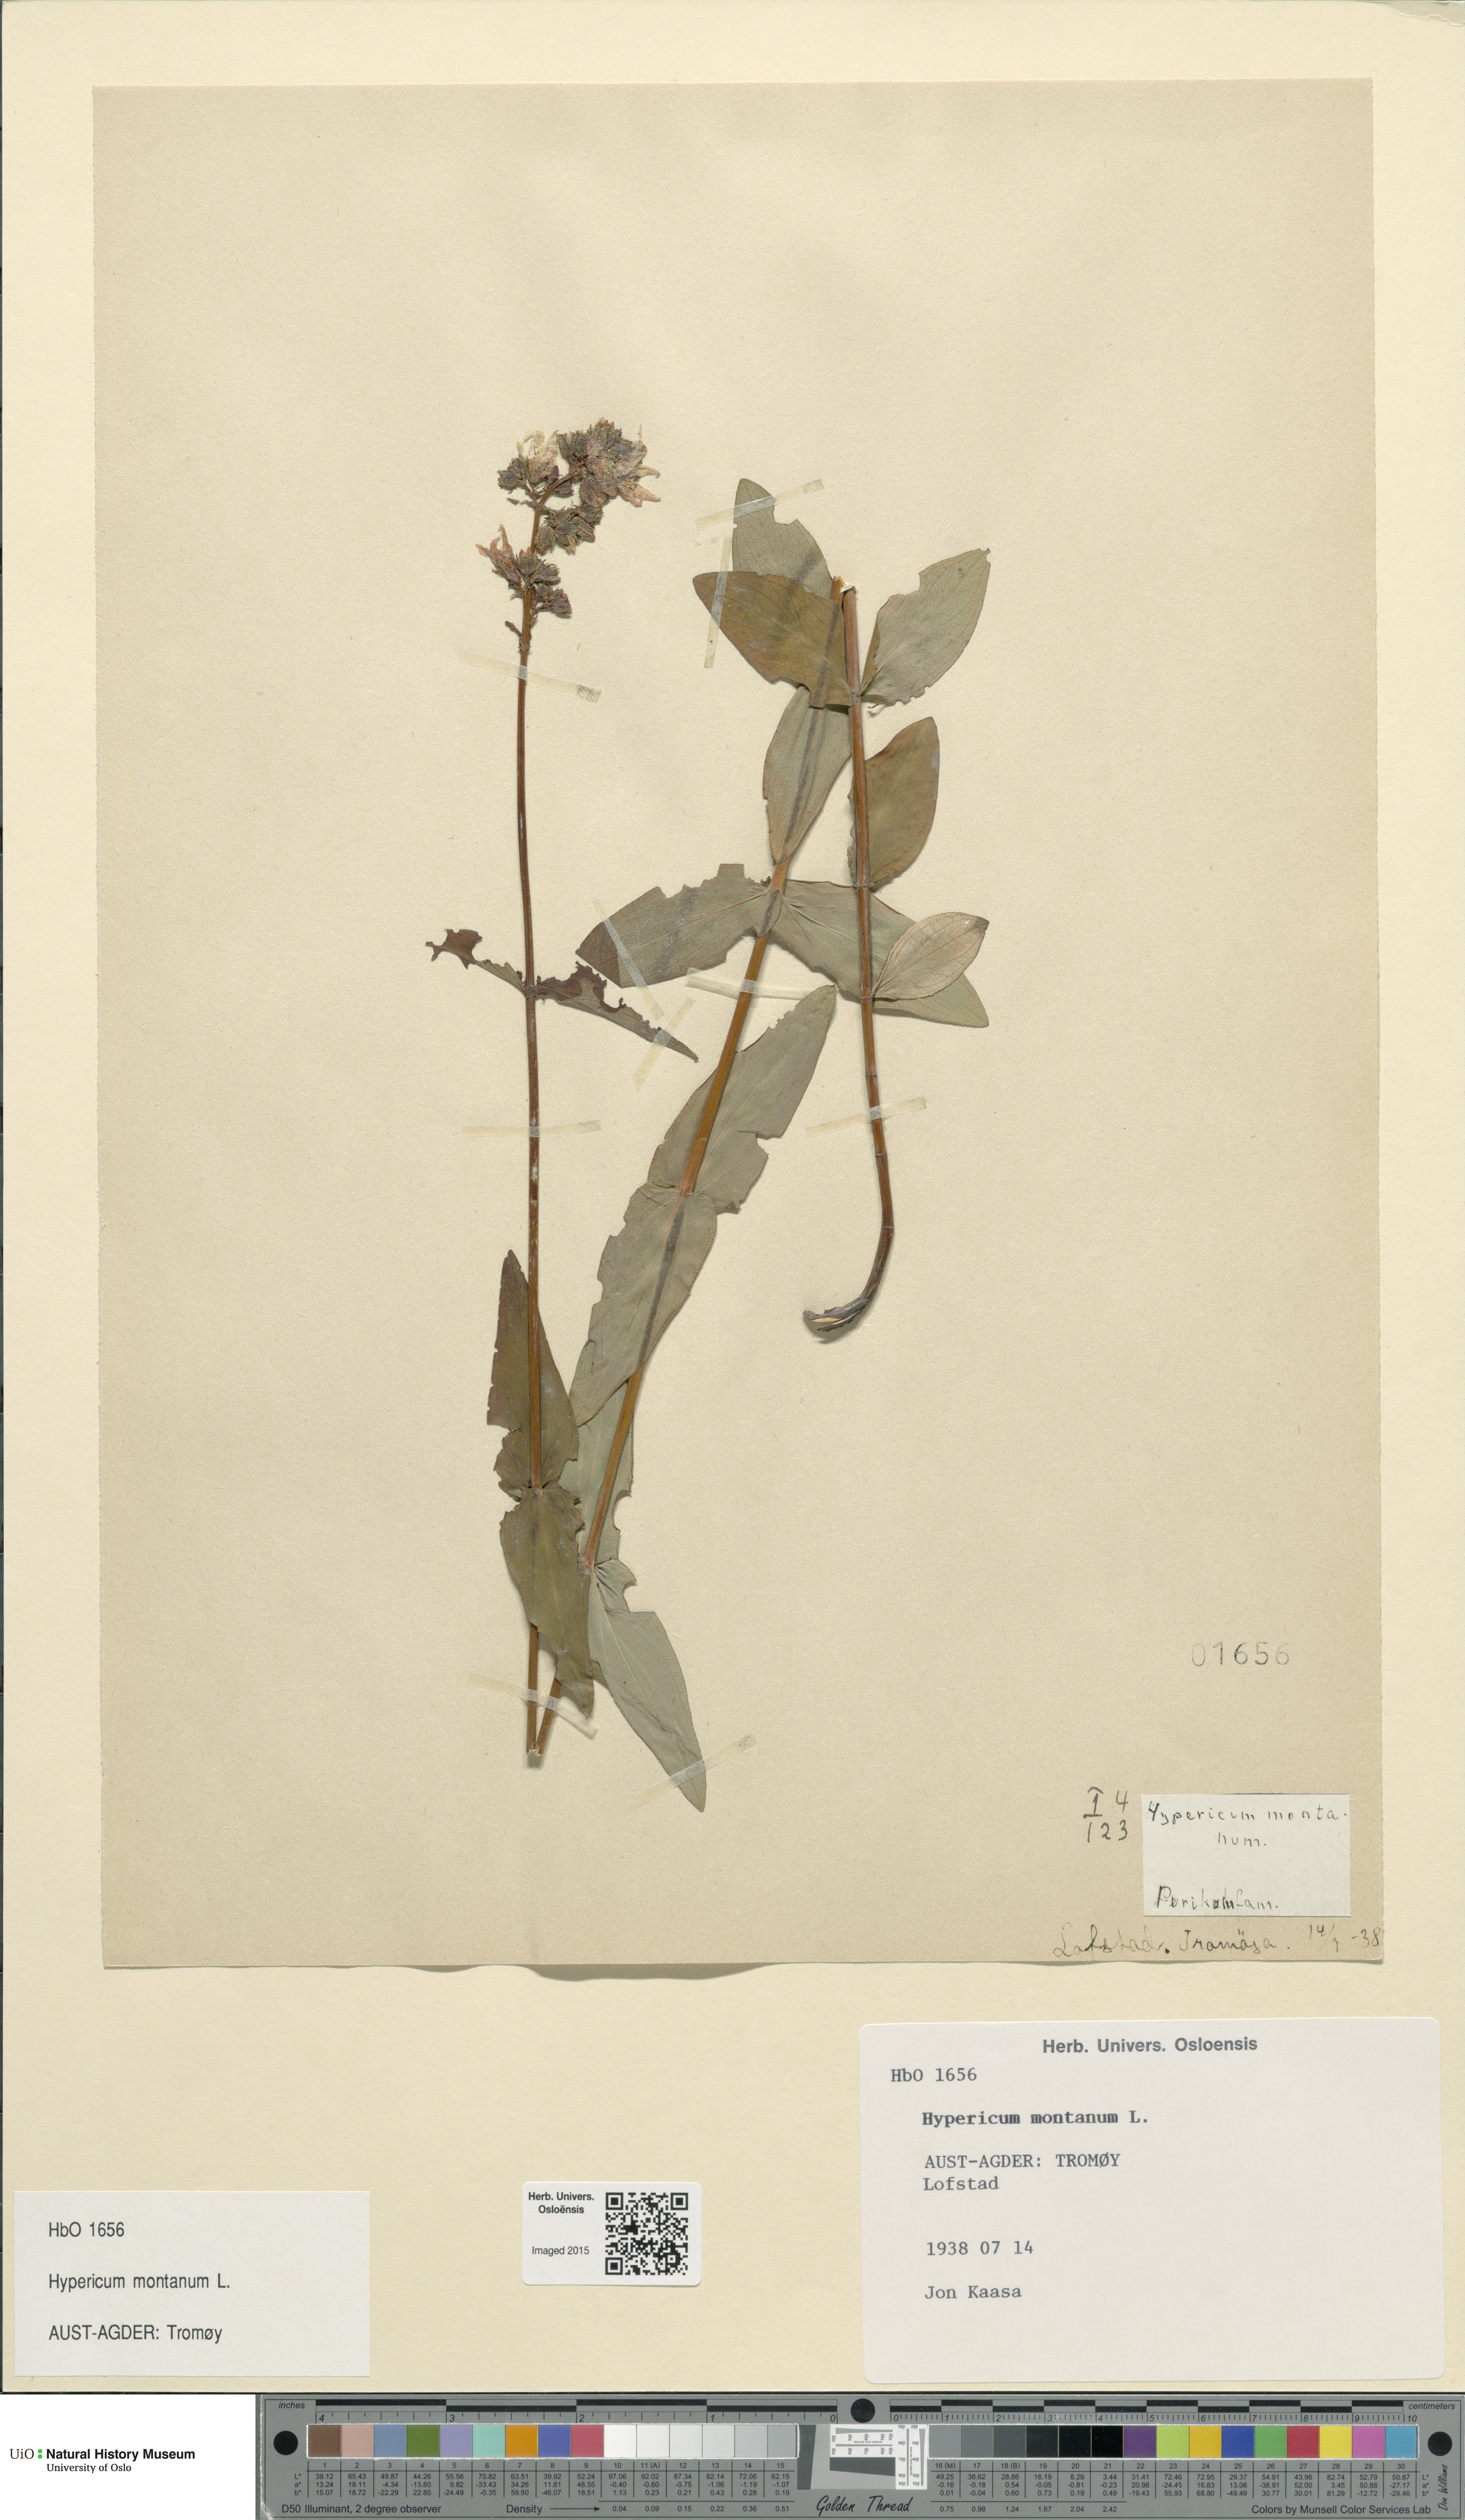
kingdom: Plantae
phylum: Tracheophyta
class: Magnoliopsida
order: Malpighiales
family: Hypericaceae
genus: Hypericum
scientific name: Hypericum montanum
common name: Pale st. john's-wort
